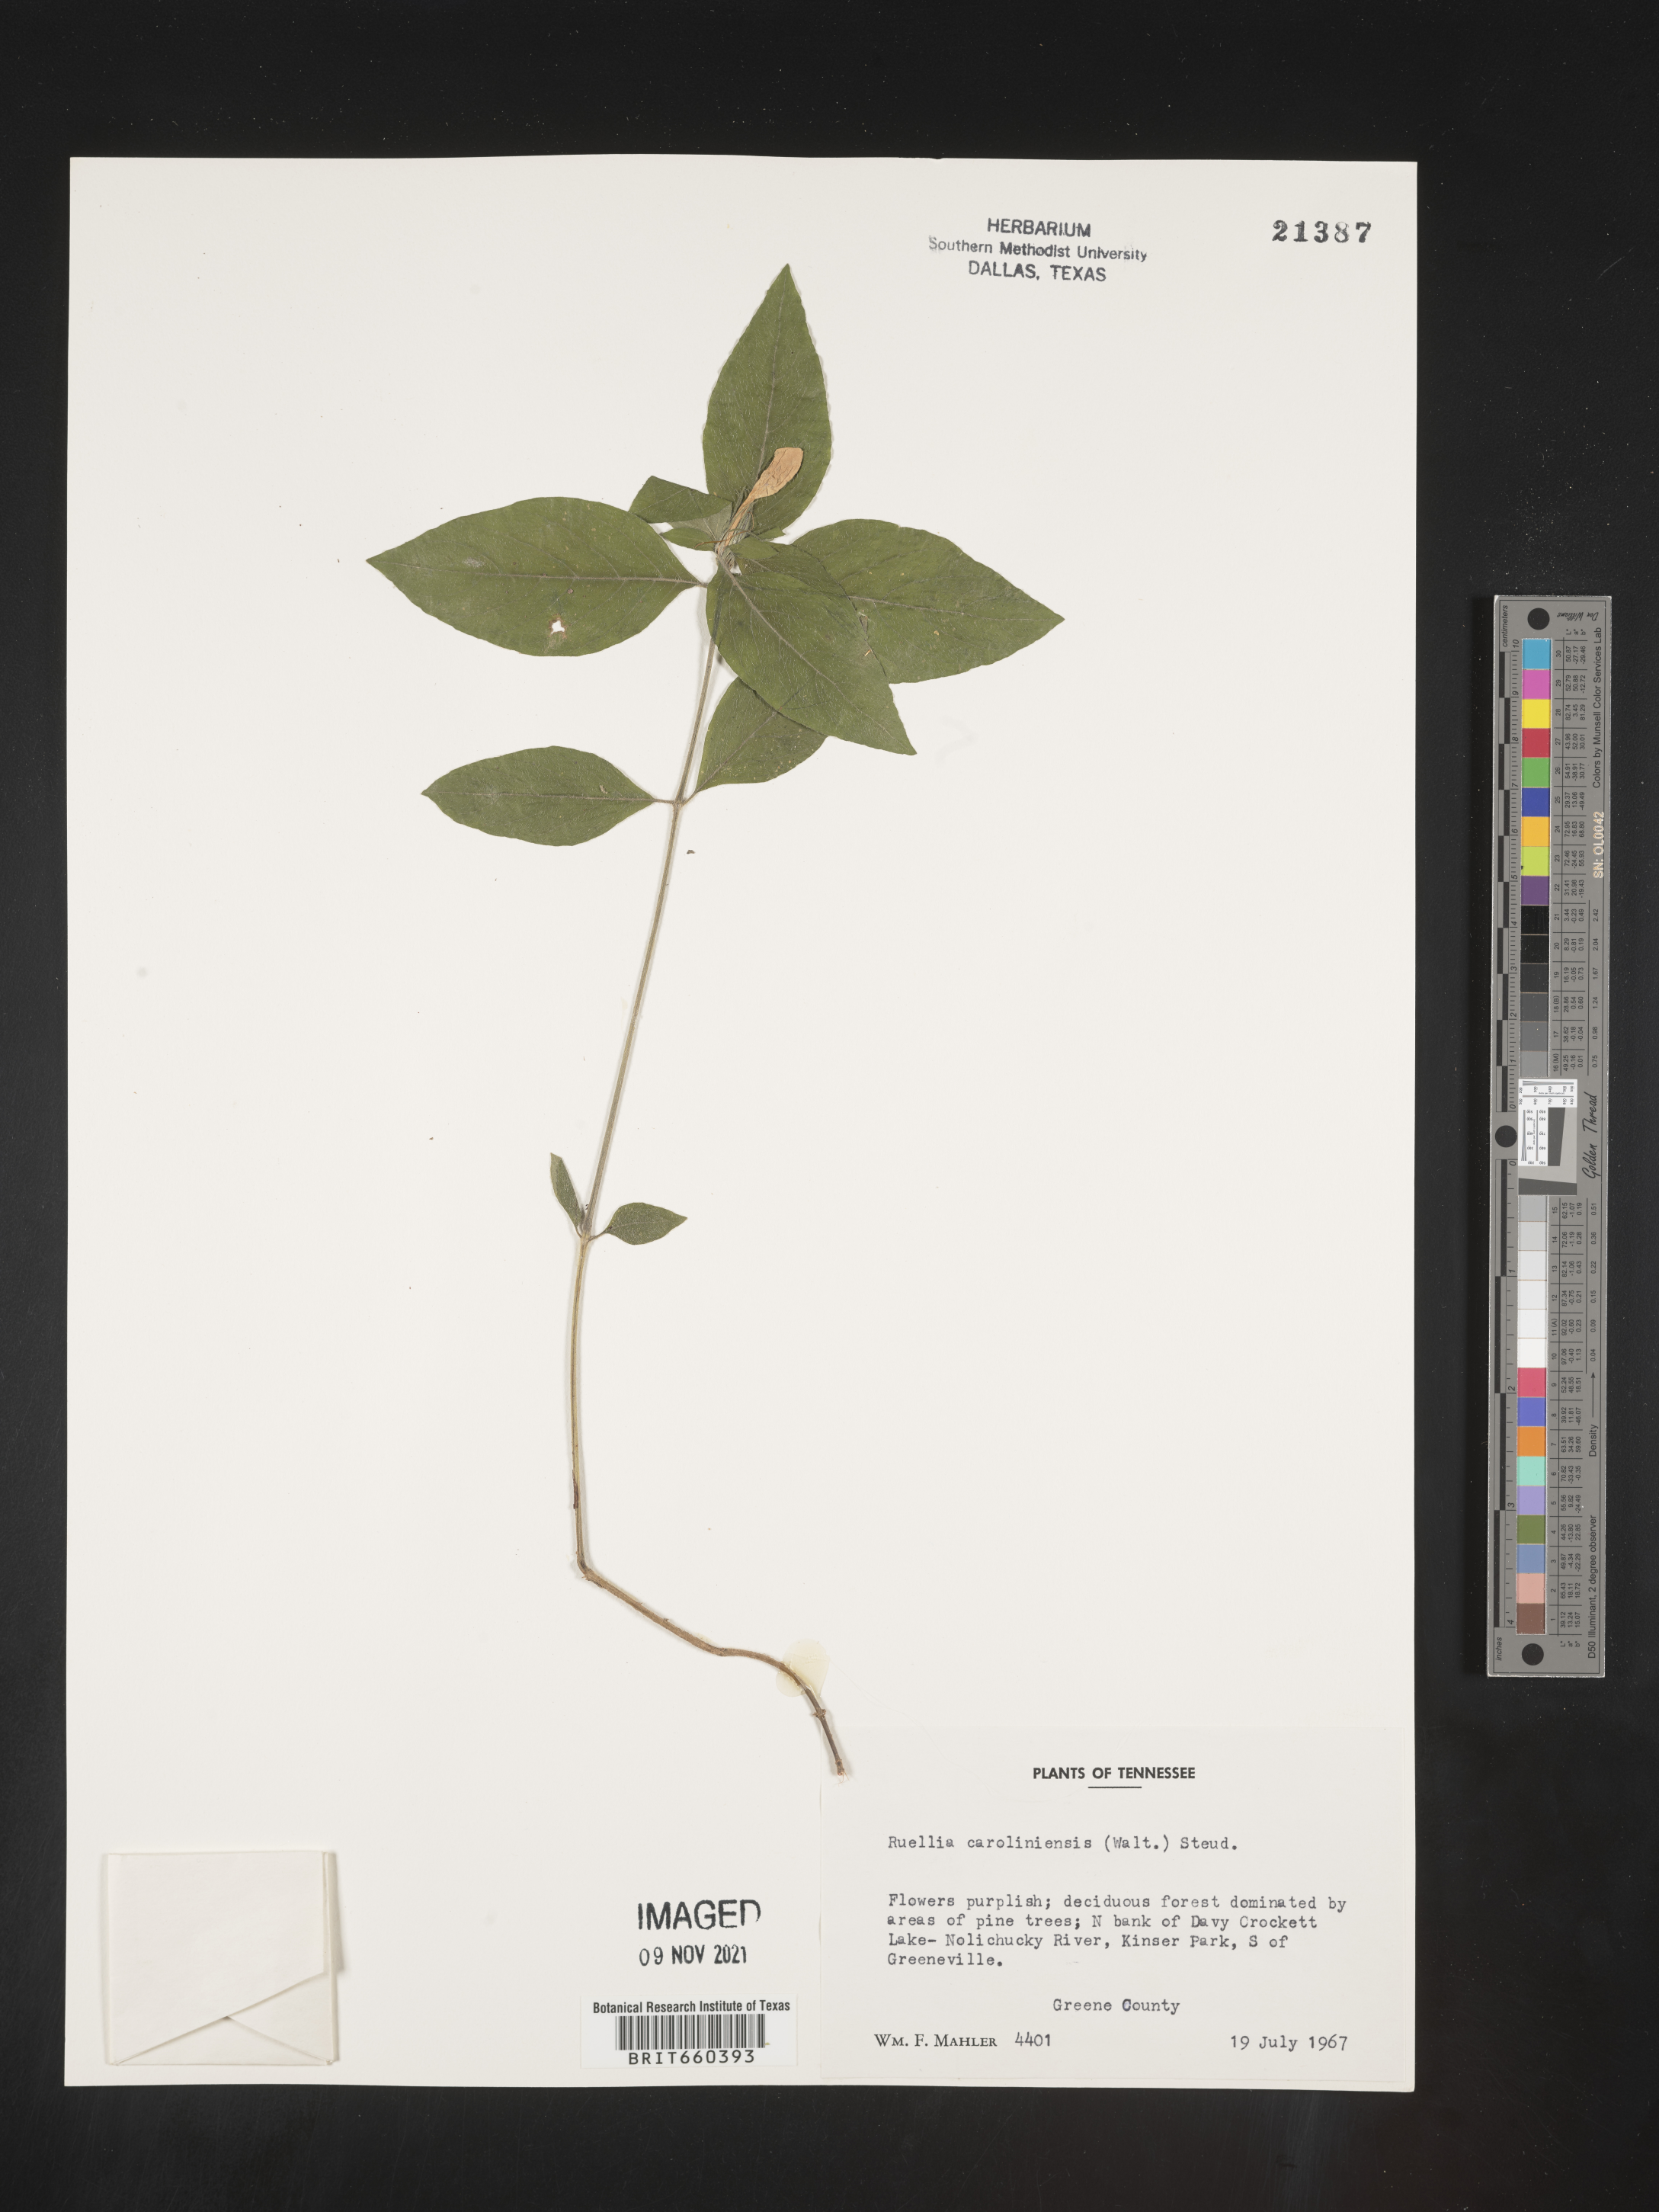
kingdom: Plantae
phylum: Tracheophyta
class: Magnoliopsida
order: Lamiales
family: Acanthaceae
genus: Ruellia
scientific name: Ruellia caroliniensis
